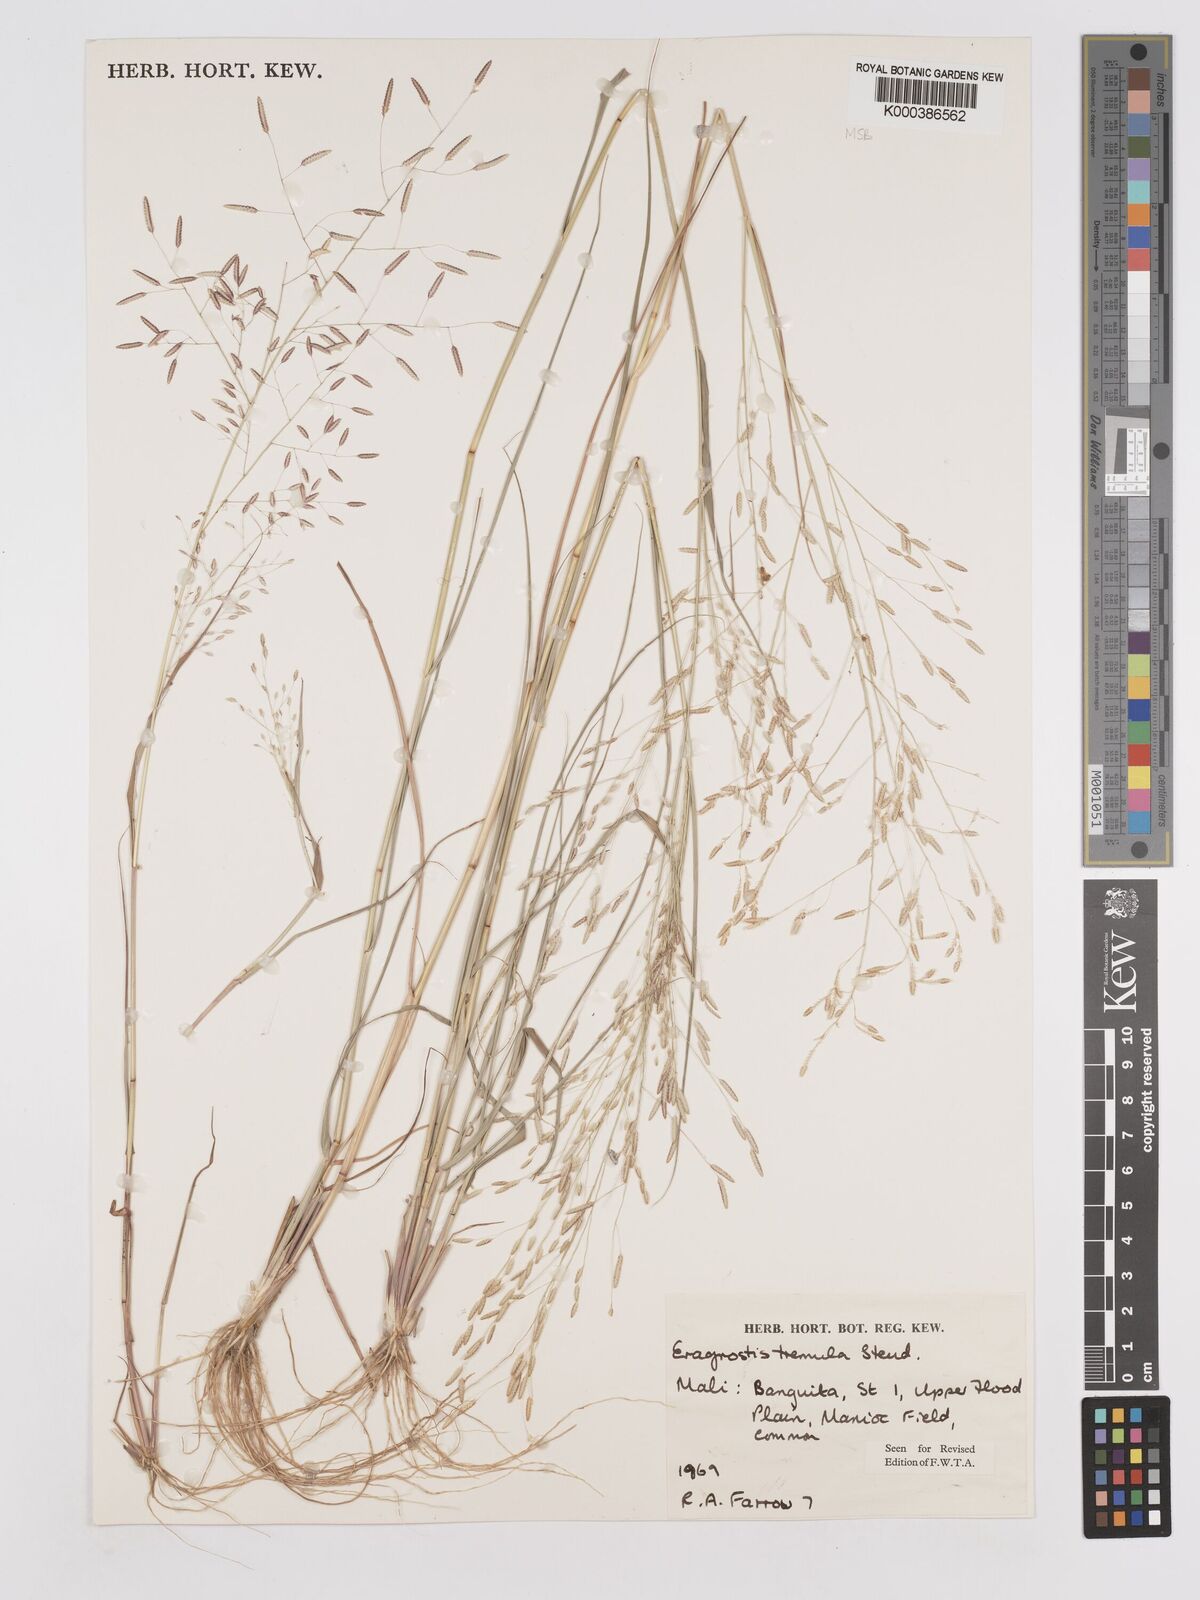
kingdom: Plantae
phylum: Tracheophyta
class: Liliopsida
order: Poales
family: Poaceae
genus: Eragrostis
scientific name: Eragrostis tremula
